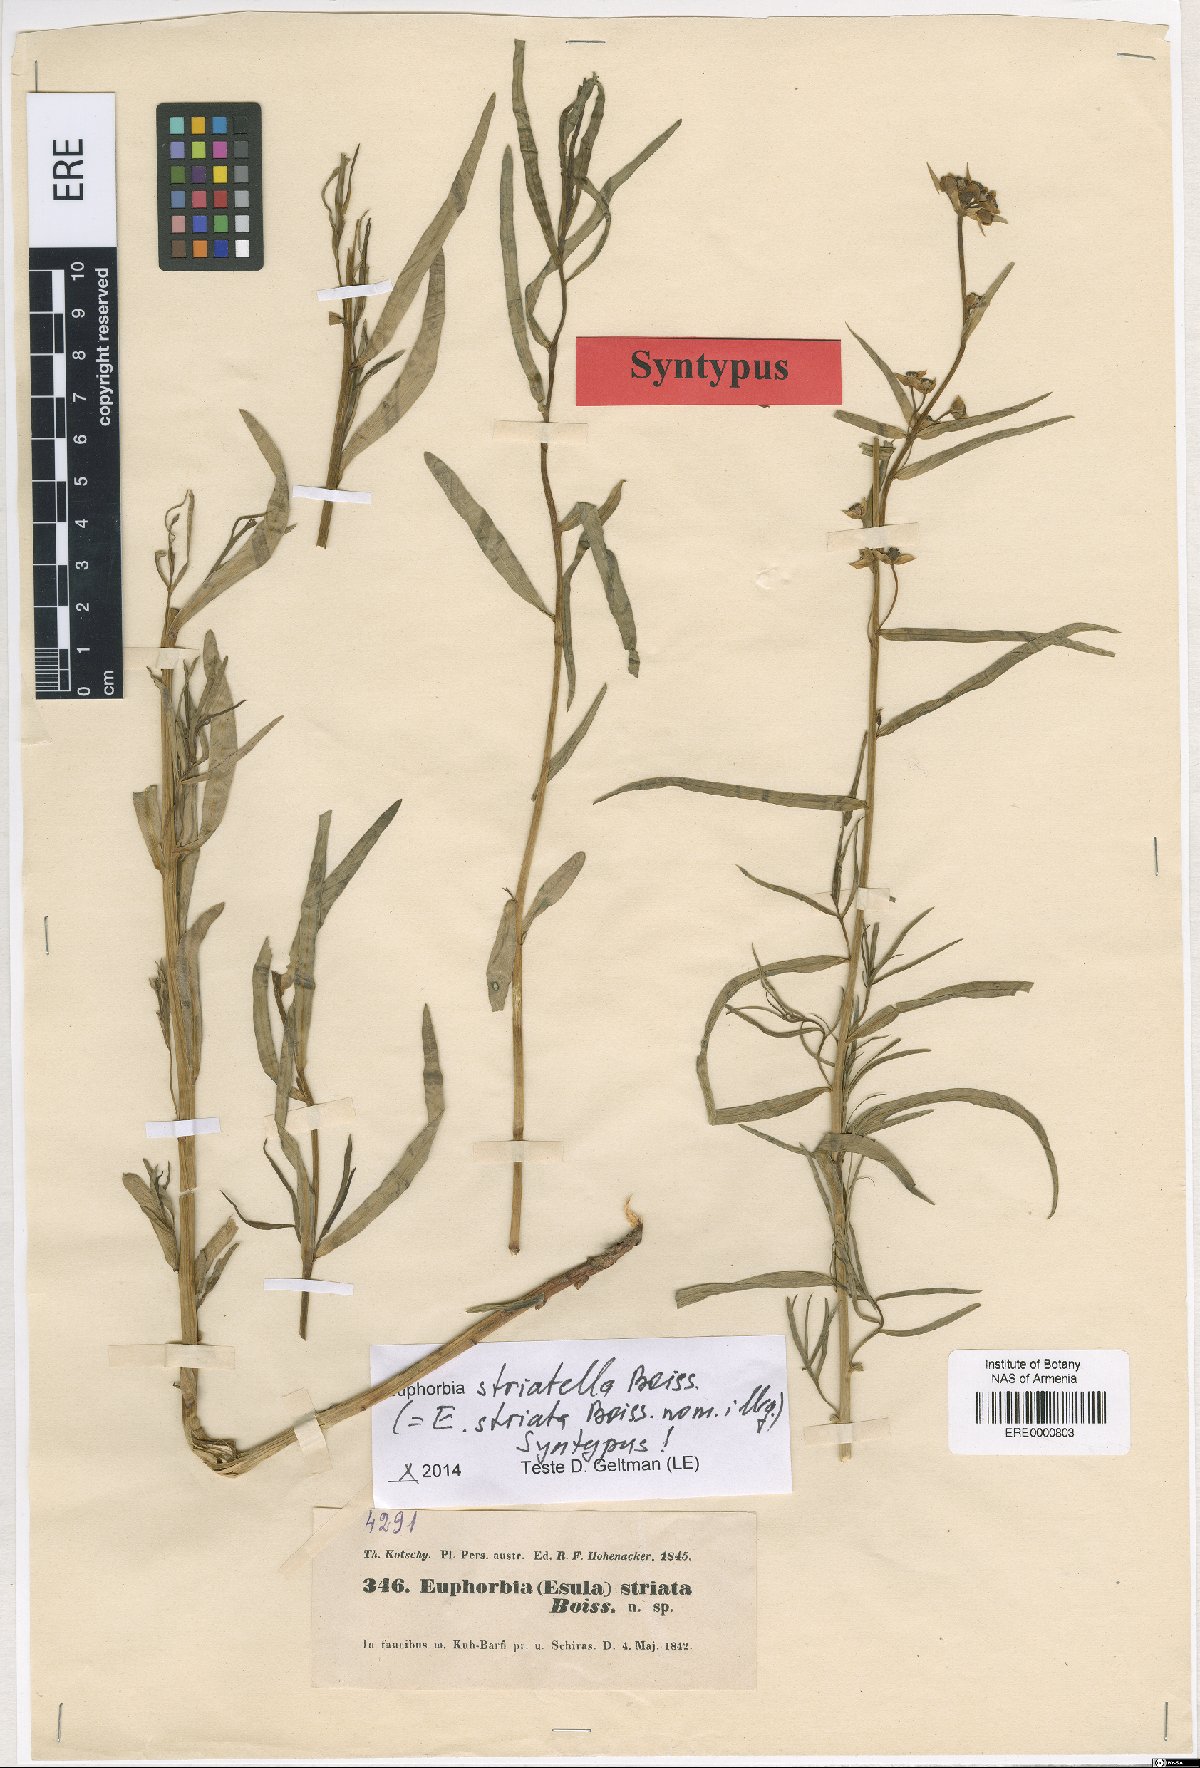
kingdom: Plantae
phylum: Tracheophyta
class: Magnoliopsida
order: Malpighiales
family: Euphorbiaceae
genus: Euphorbia
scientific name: Euphorbia microsciadia
